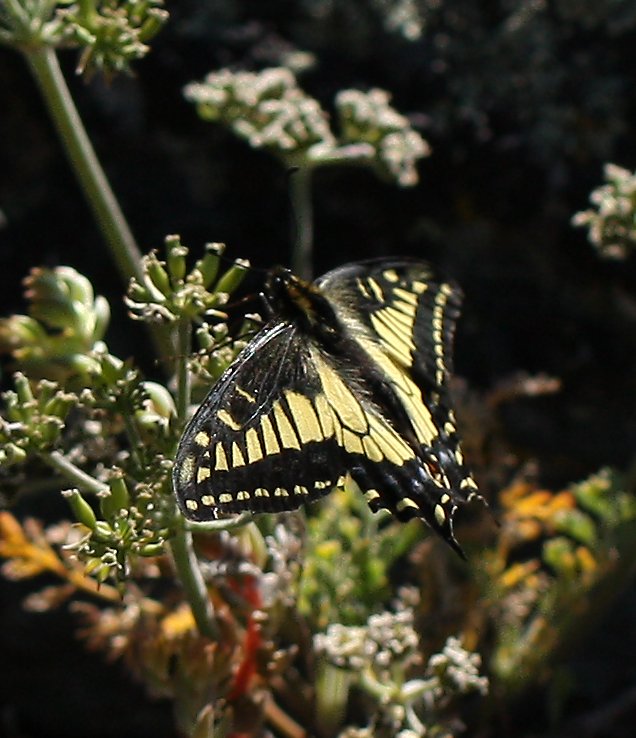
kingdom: Animalia
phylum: Arthropoda
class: Insecta
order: Lepidoptera
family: Papilionidae
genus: Papilio
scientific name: Papilio zelicaon
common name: Anise Swallowtail
